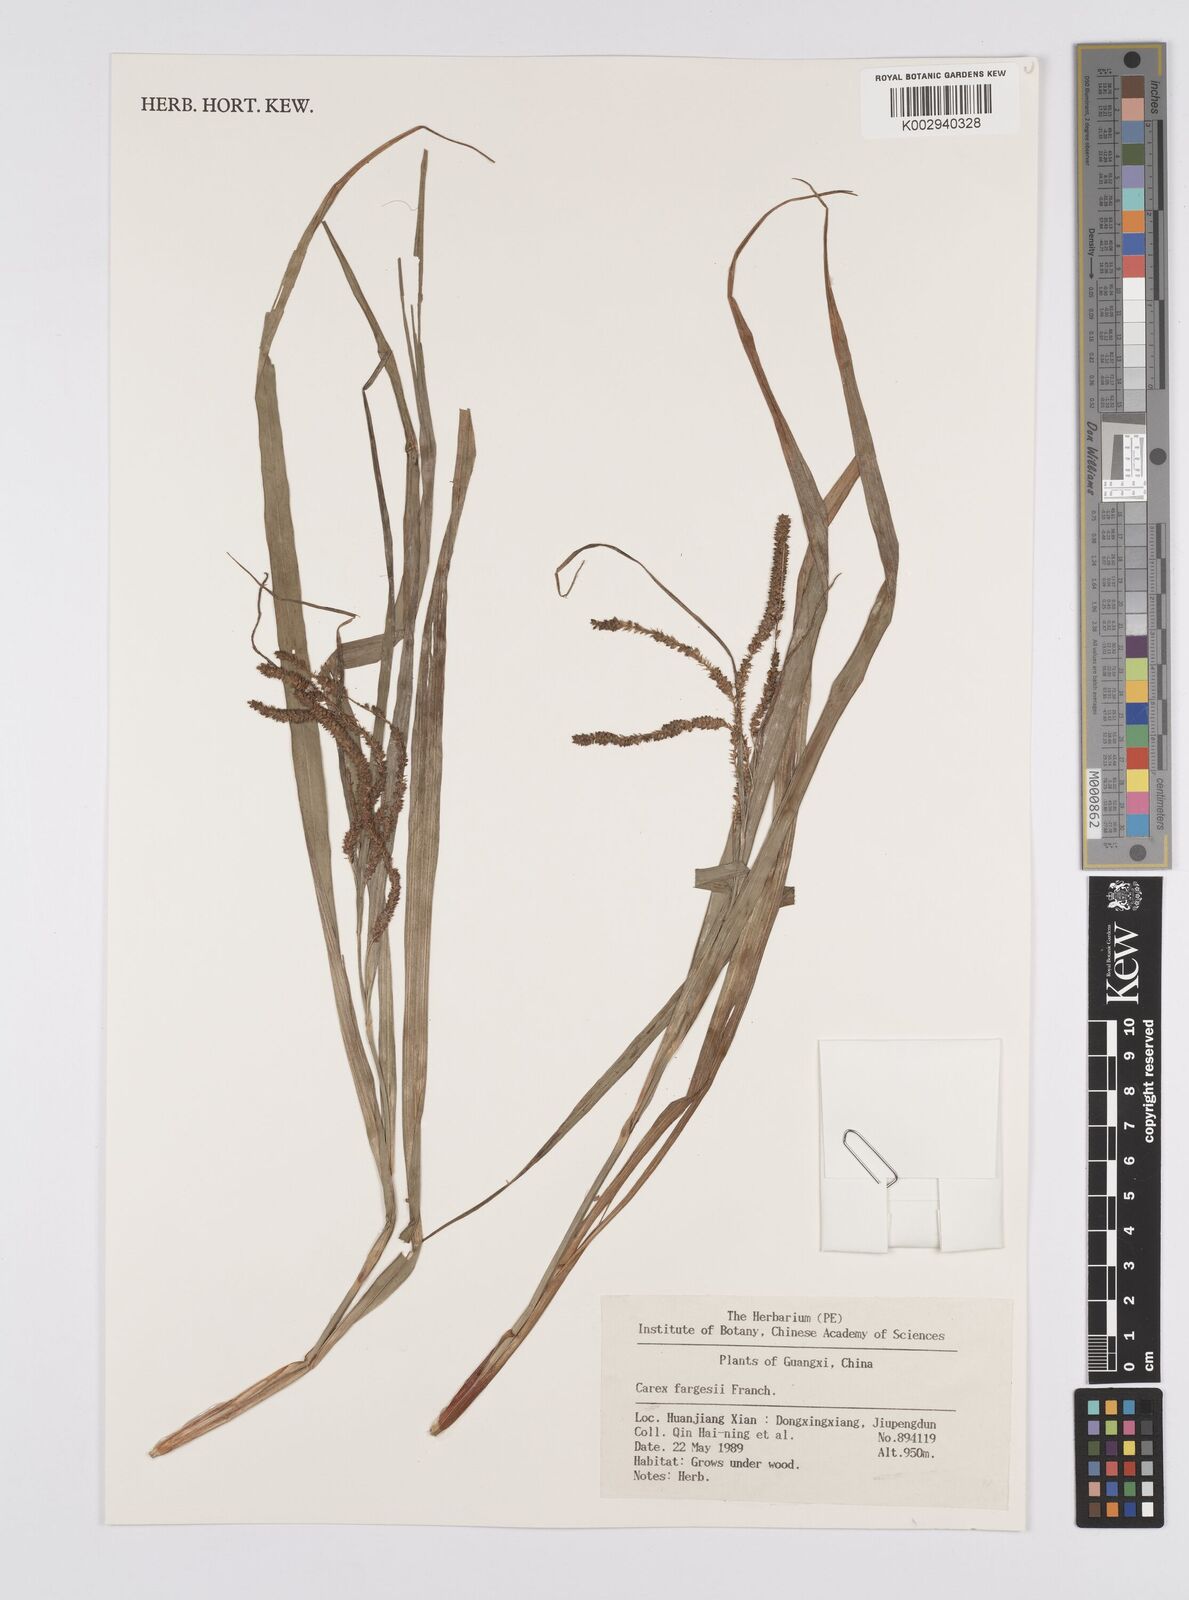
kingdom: Plantae
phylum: Tracheophyta
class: Liliopsida
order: Poales
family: Cyperaceae
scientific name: Cyperaceae
